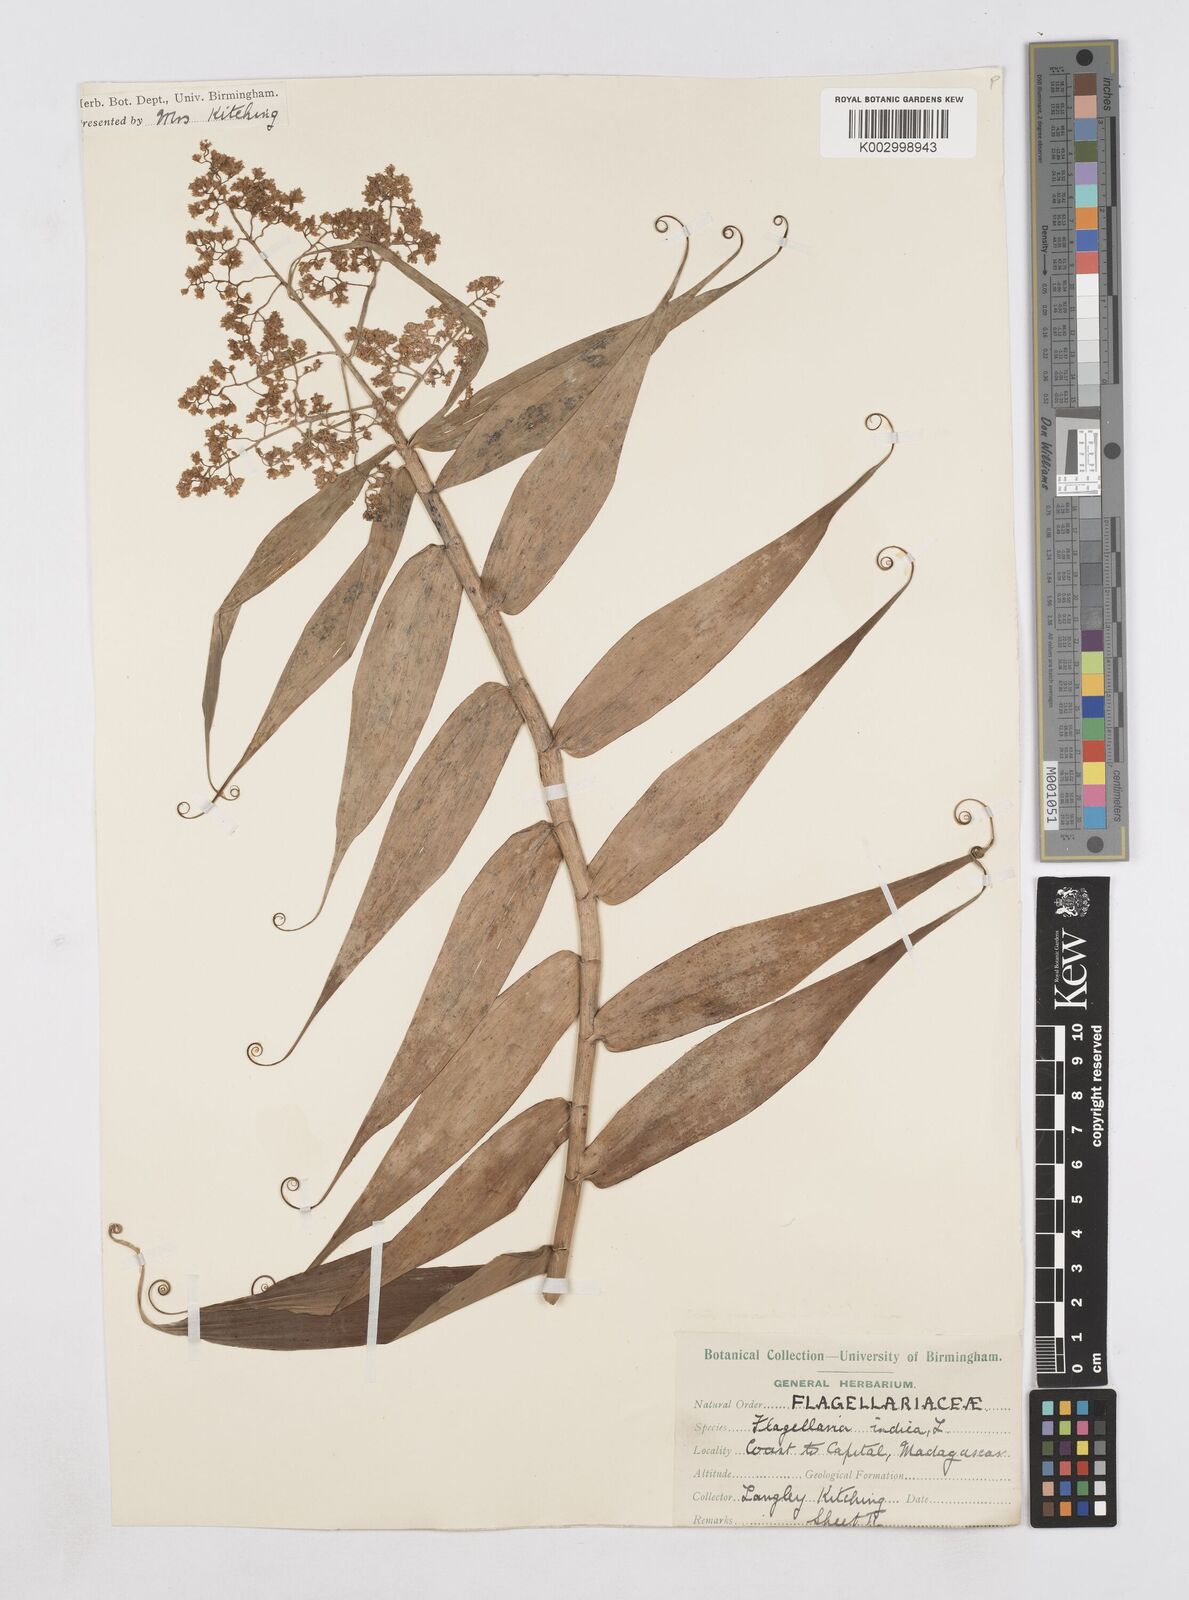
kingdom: Plantae
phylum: Tracheophyta
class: Liliopsida
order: Poales
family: Flagellariaceae
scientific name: Flagellariaceae
